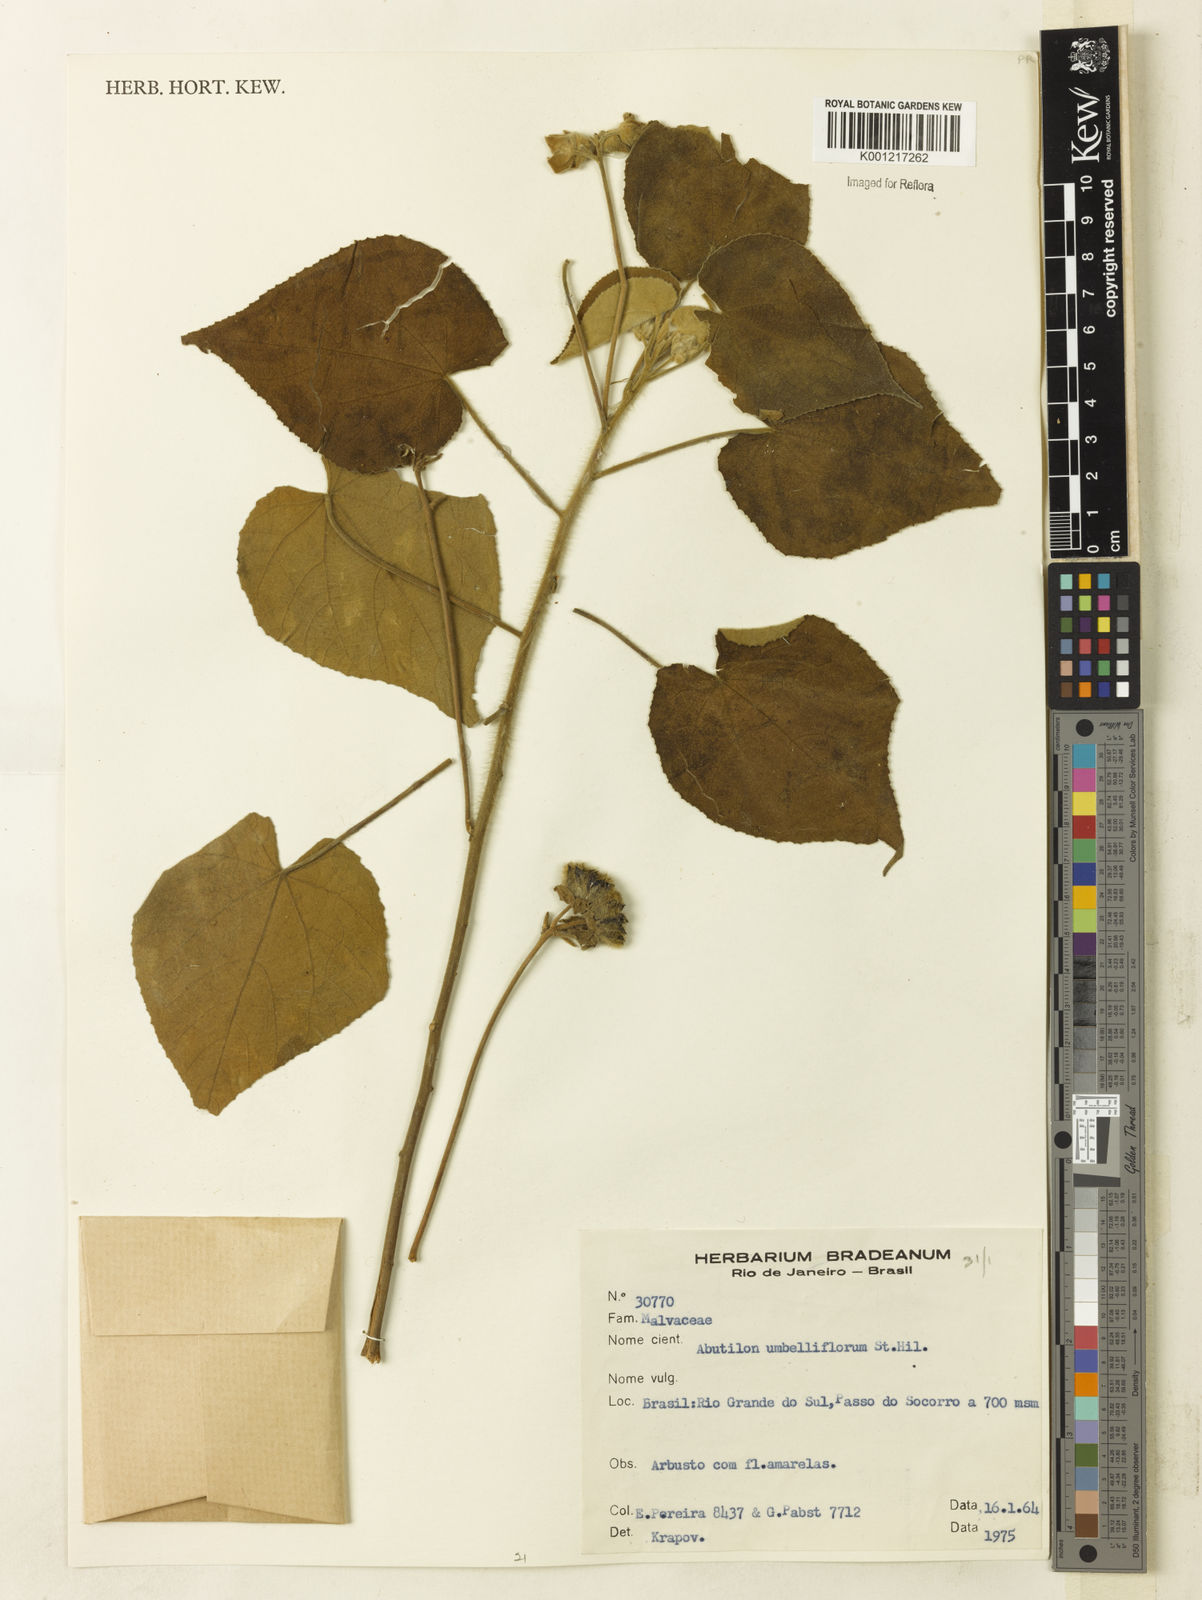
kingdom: Plantae
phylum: Tracheophyta
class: Magnoliopsida
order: Malvales
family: Malvaceae
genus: Abutilon
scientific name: Abutilon umbelliflorum
